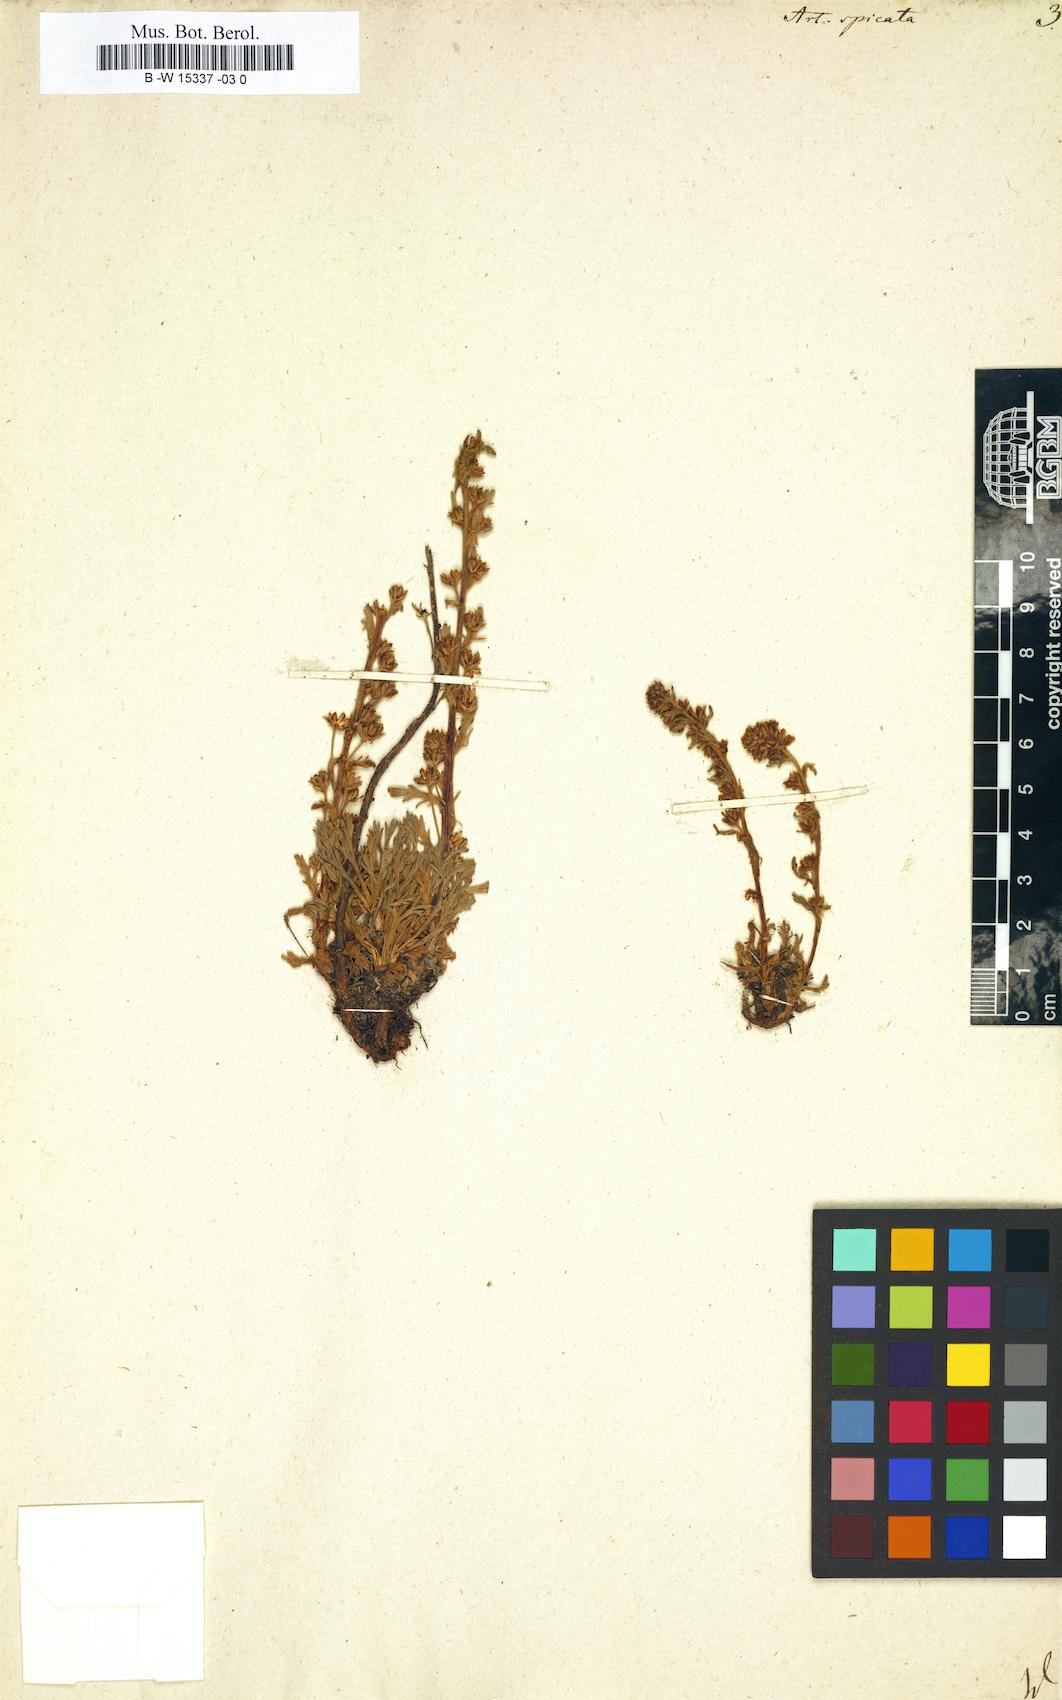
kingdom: Plantae
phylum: Tracheophyta
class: Magnoliopsida
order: Asterales
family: Asteraceae
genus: Artemisia
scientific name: Artemisia genipi
